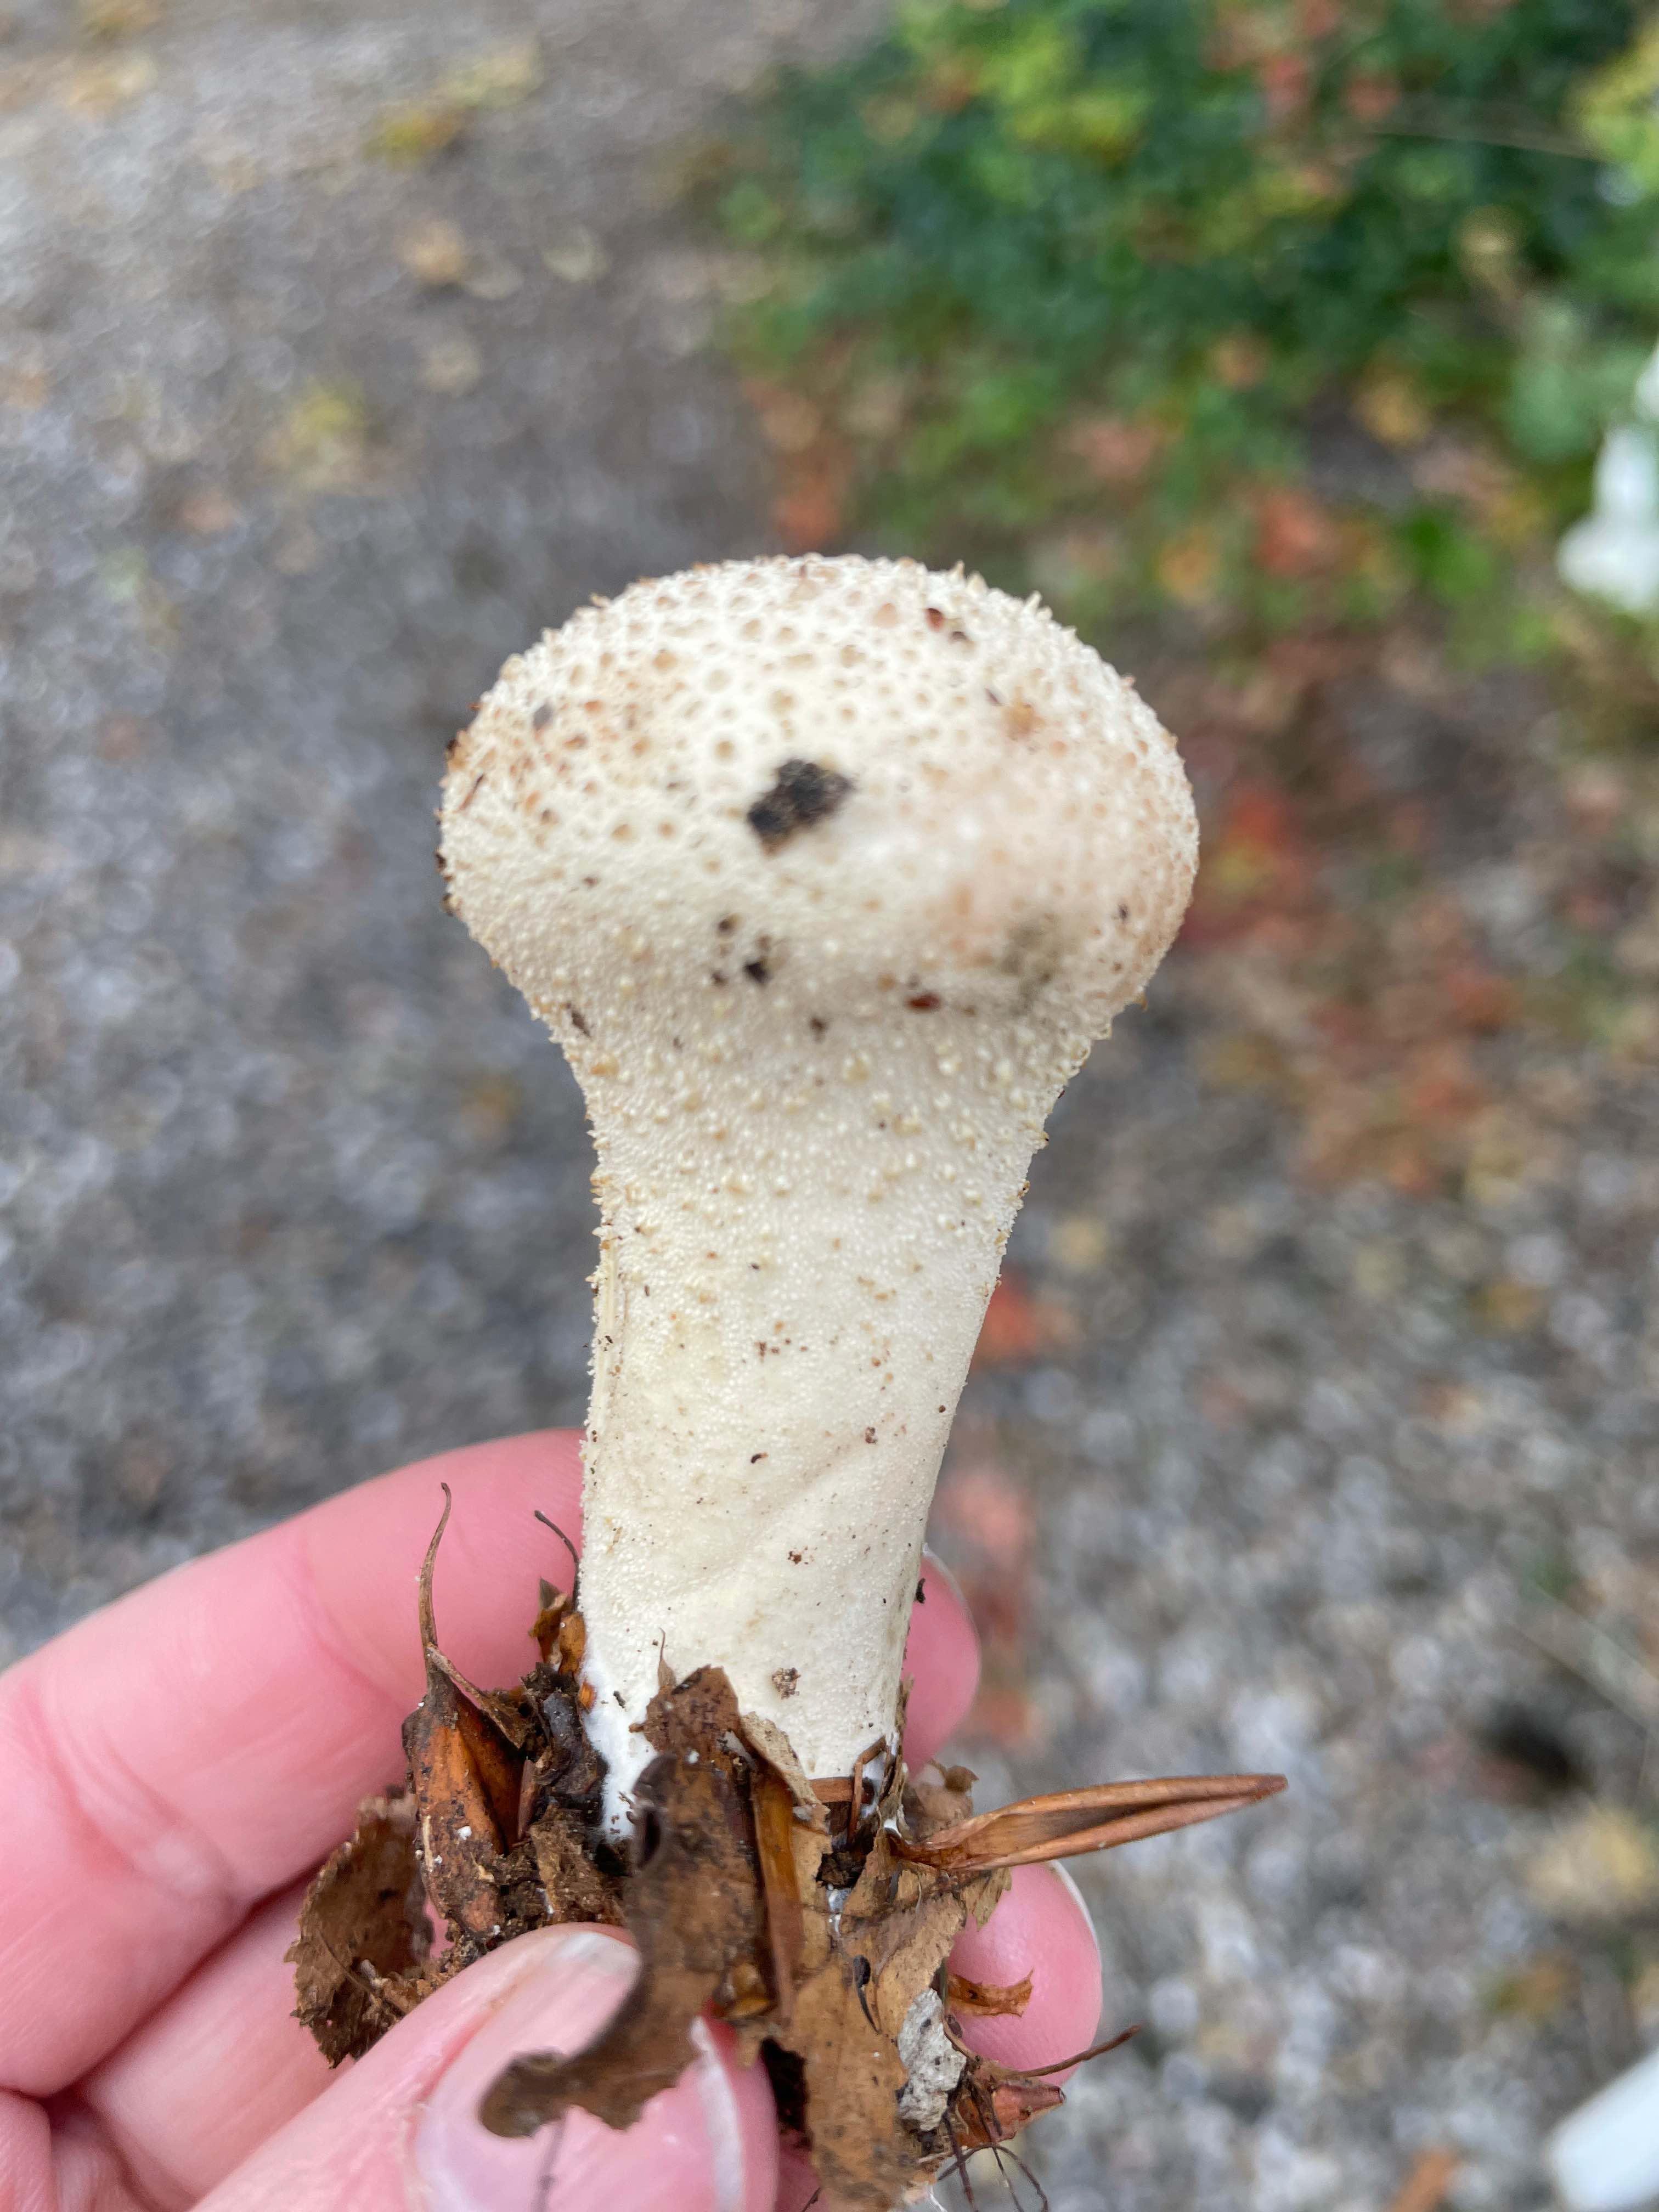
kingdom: Fungi
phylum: Basidiomycota
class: Agaricomycetes
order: Agaricales
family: Lycoperdaceae
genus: Lycoperdon
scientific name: Lycoperdon excipuliforme
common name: højstokket støvbold
